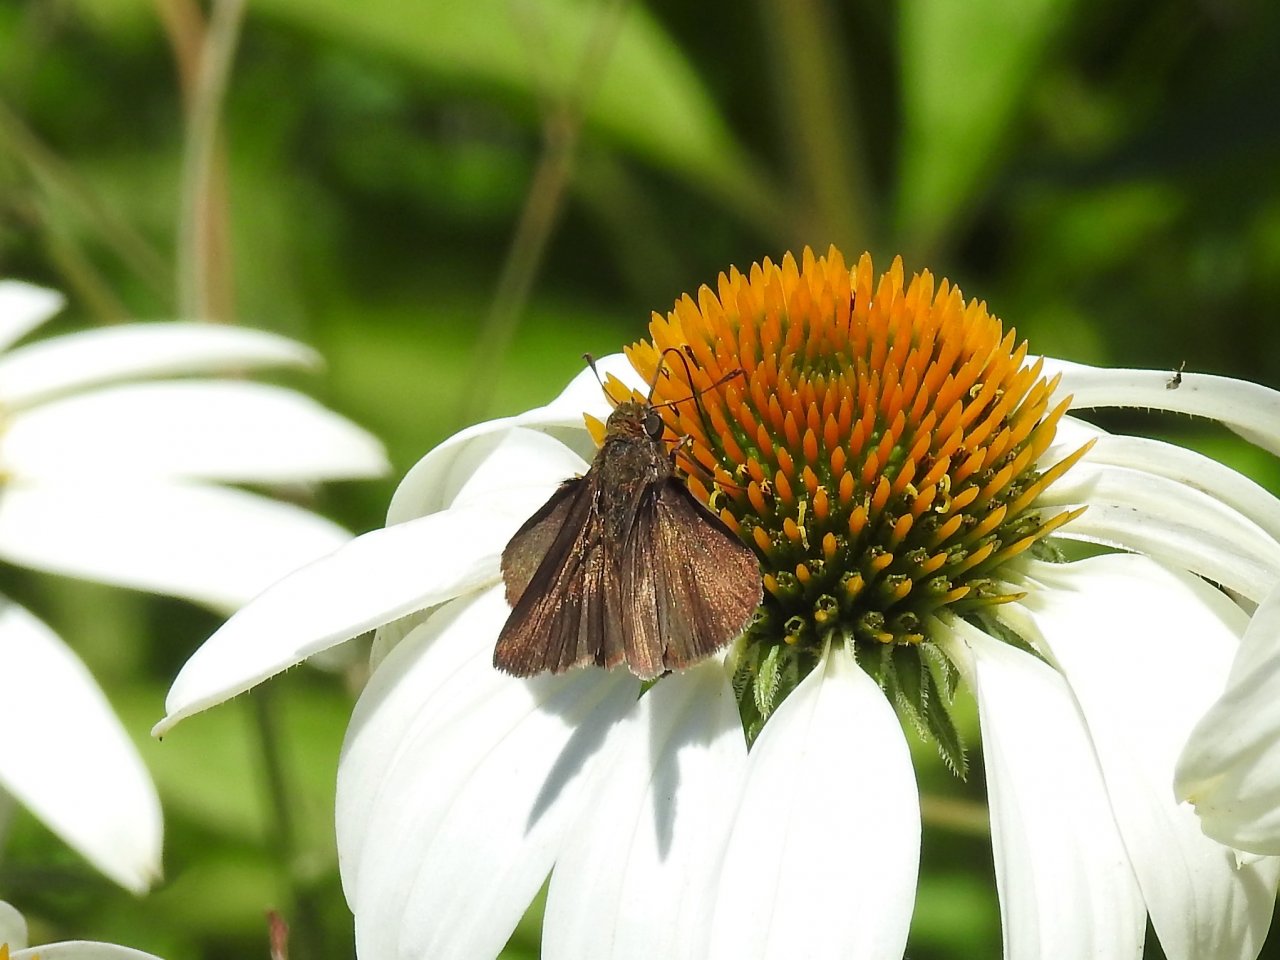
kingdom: Animalia
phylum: Arthropoda
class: Insecta
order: Lepidoptera
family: Hesperiidae
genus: Euphyes
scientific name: Euphyes vestris
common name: Dun Skipper
